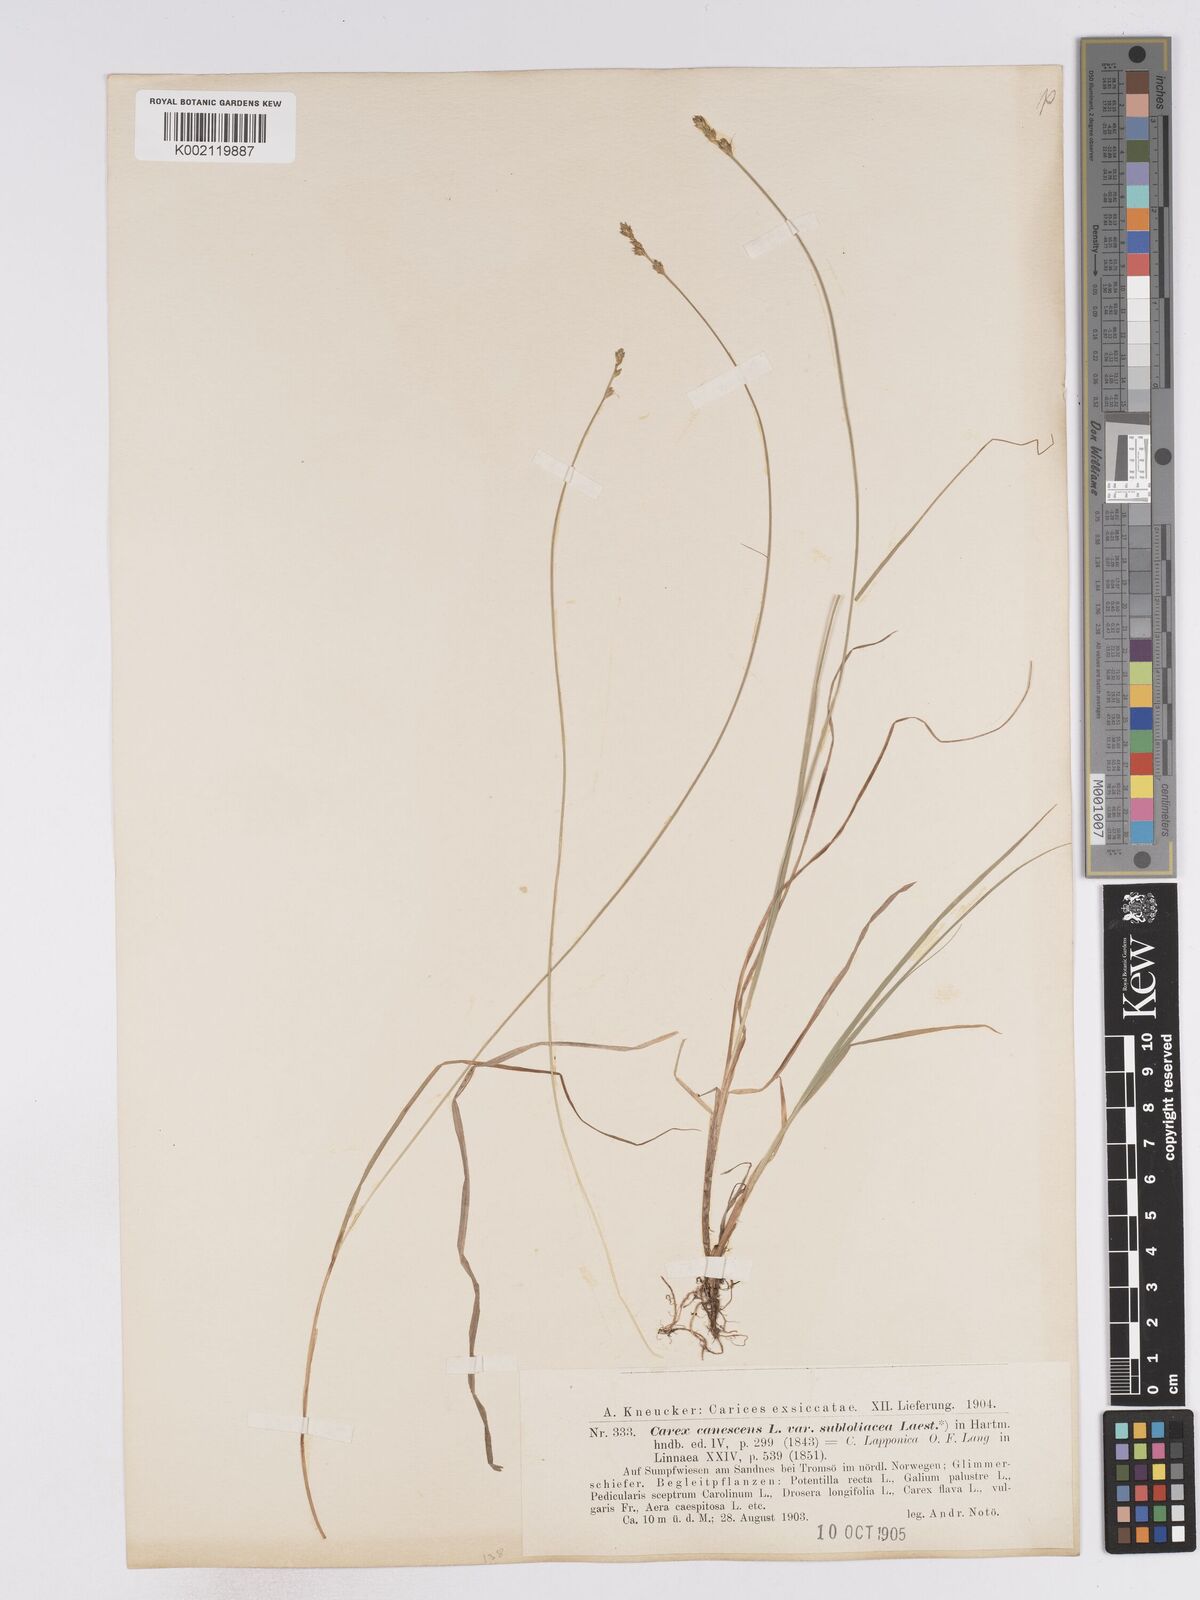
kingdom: Plantae
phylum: Tracheophyta
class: Liliopsida
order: Poales
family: Cyperaceae
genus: Carex
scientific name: Carex lapponica
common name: Lapland sedge
